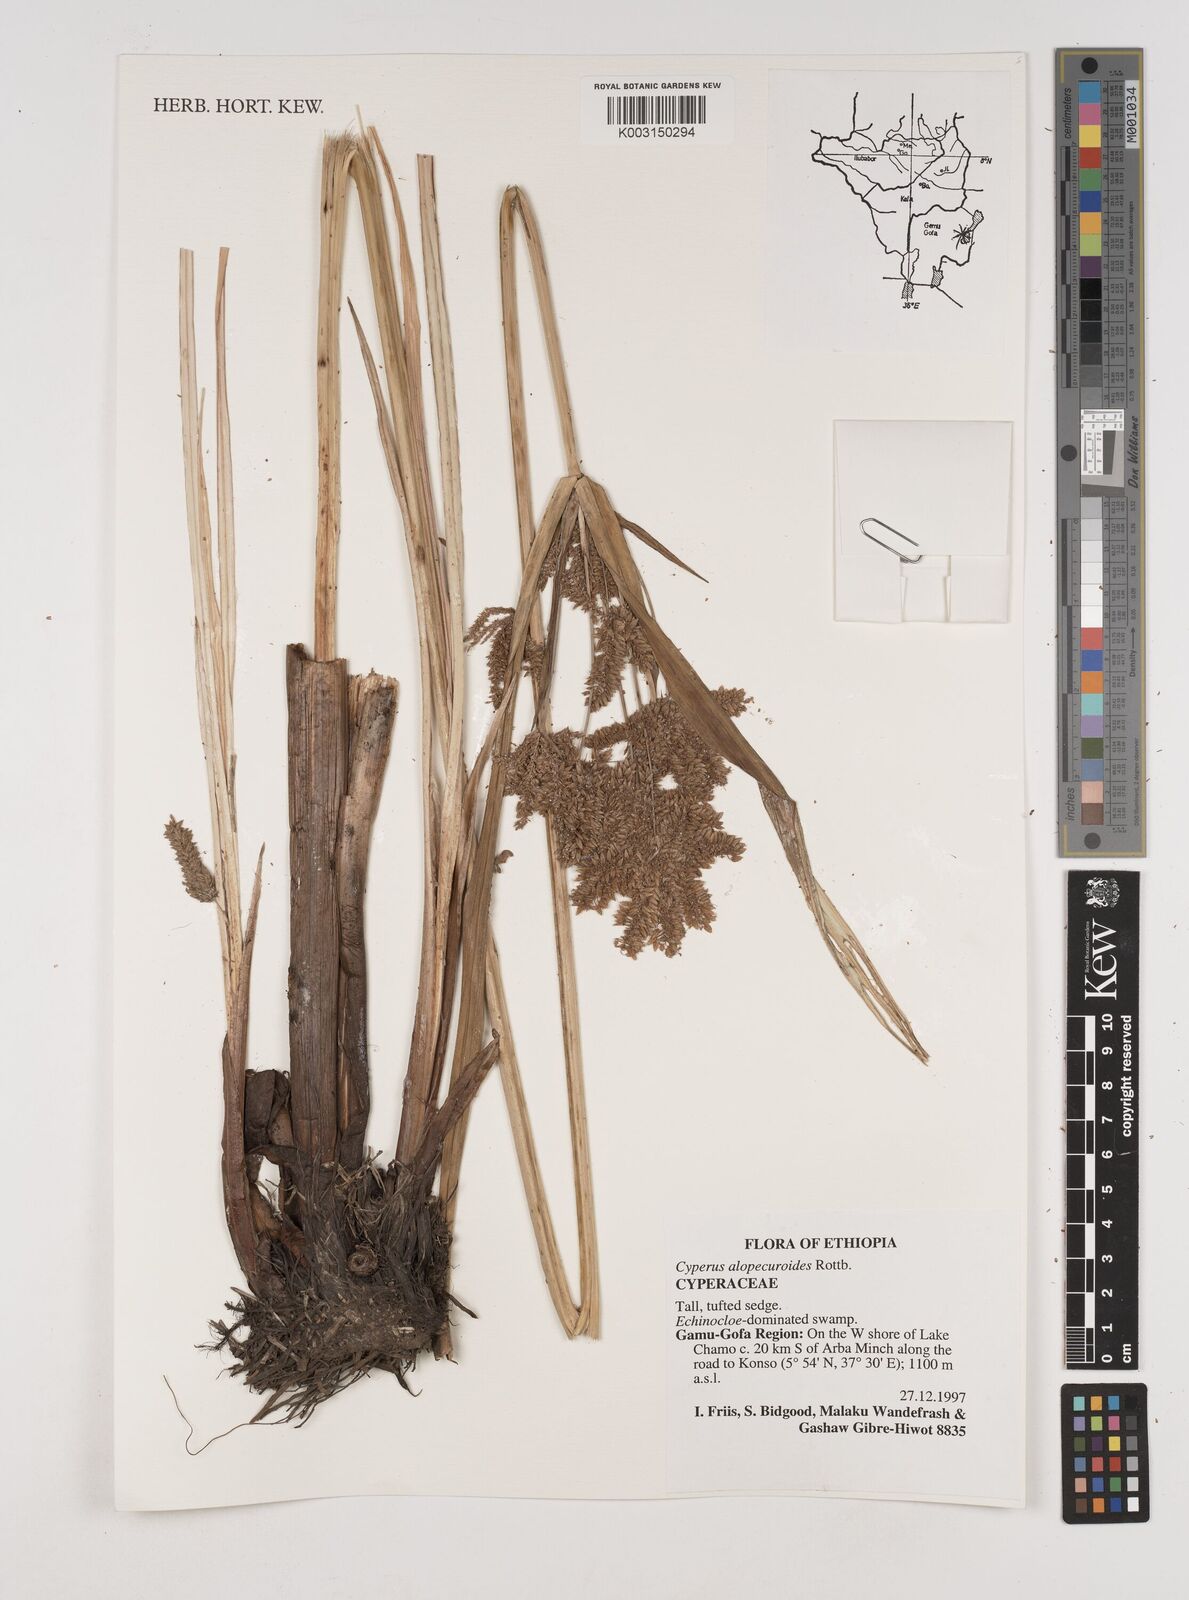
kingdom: Plantae
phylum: Tracheophyta
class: Liliopsida
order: Poales
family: Cyperaceae
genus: Cyperus
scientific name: Cyperus alopecuroides
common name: Foxtail flatsedge
